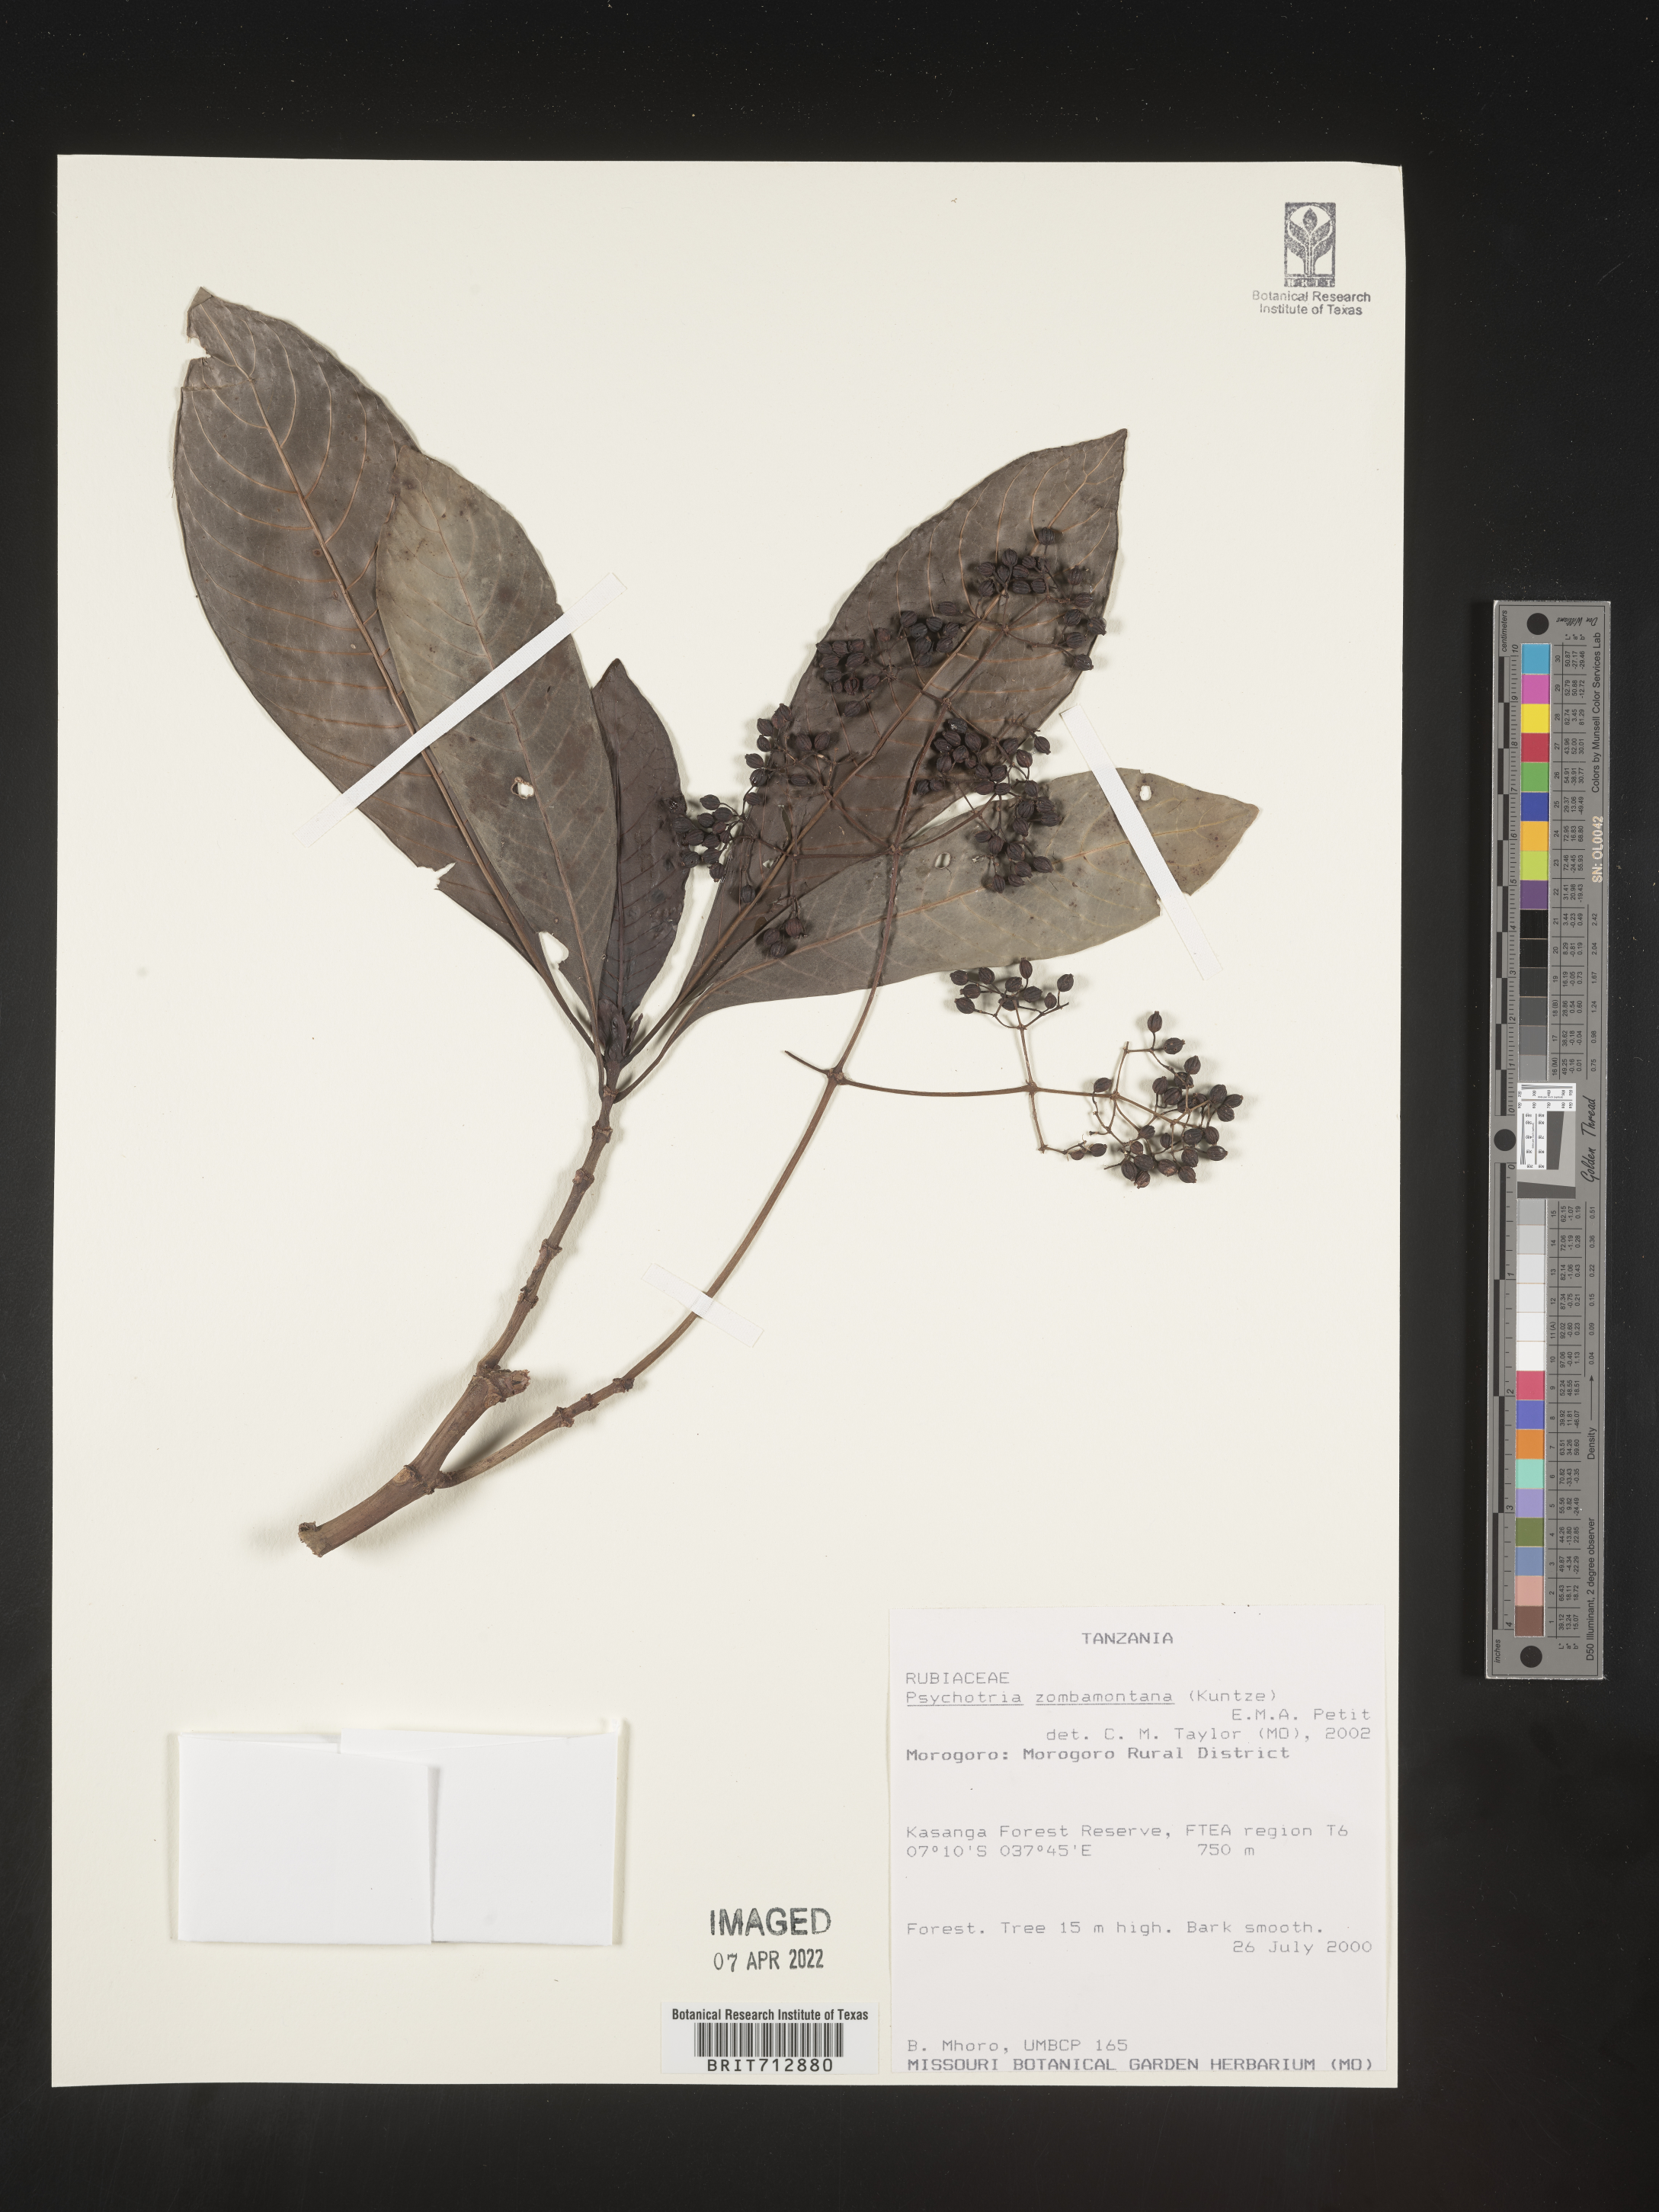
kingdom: Plantae
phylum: Tracheophyta
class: Magnoliopsida
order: Gentianales
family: Rubiaceae
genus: Psychotria
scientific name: Psychotria
